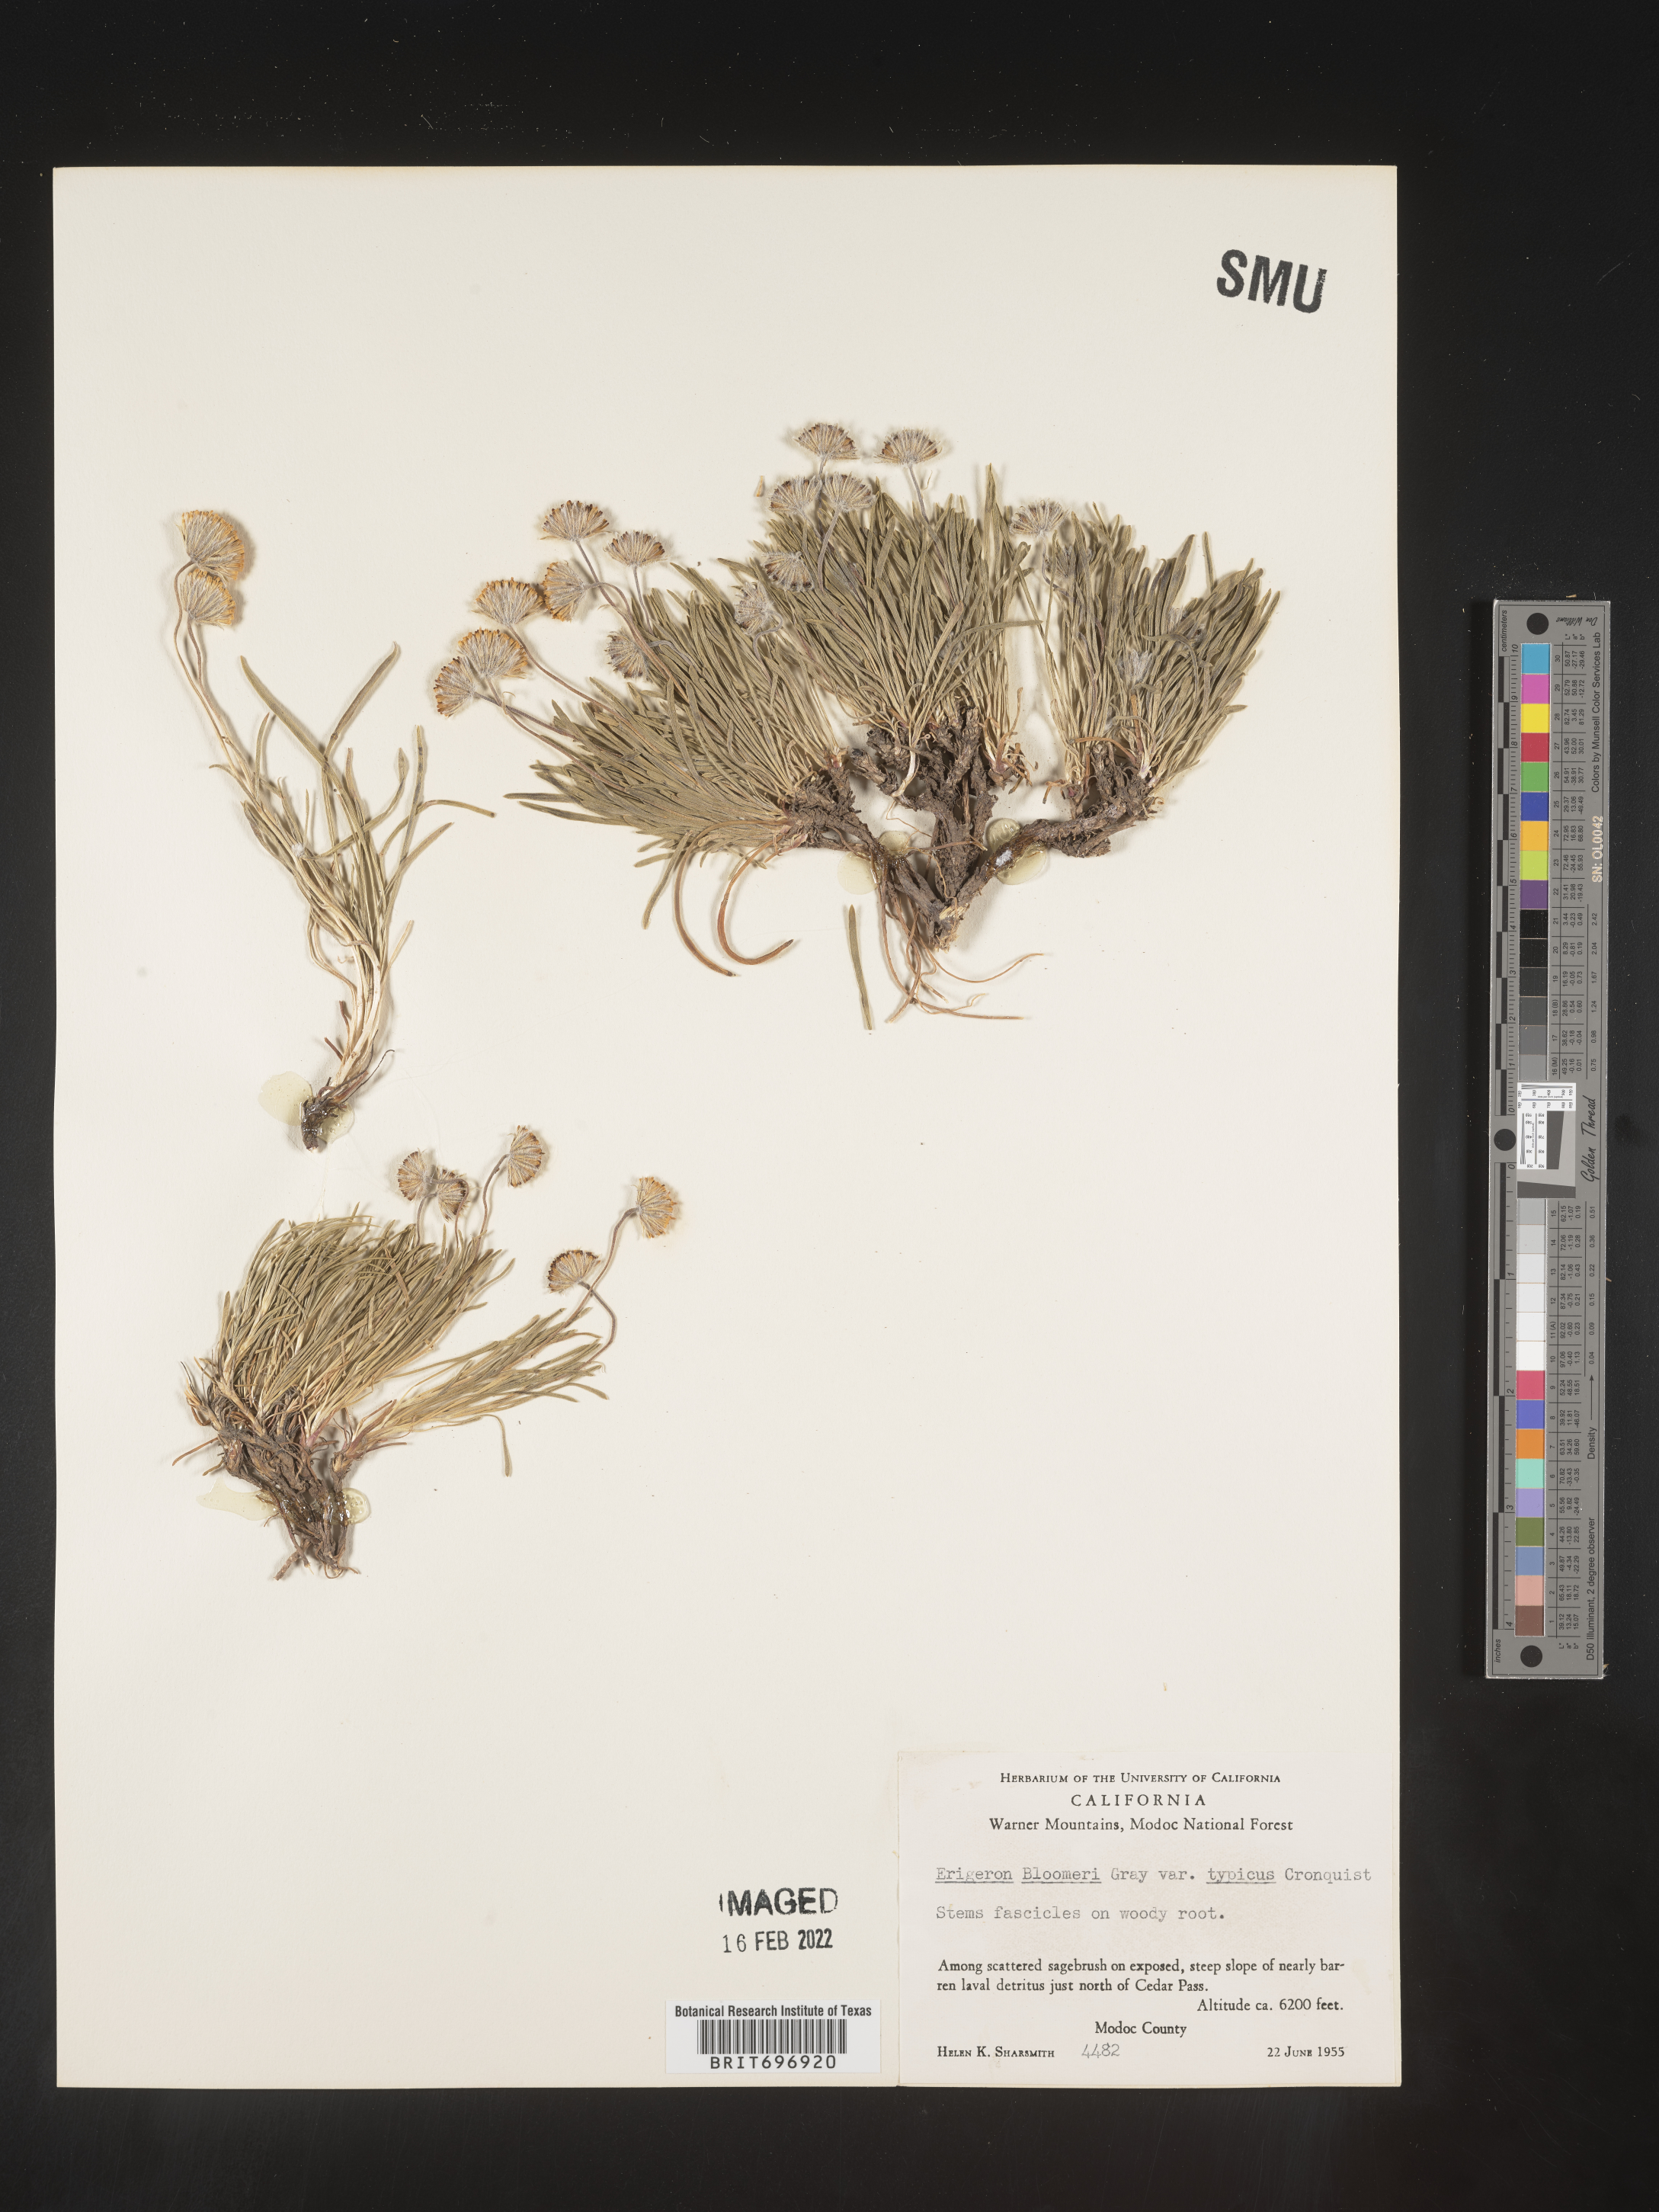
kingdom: Plantae
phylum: Tracheophyta
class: Magnoliopsida
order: Asterales
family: Asteraceae
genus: Erigeron
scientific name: Erigeron bloomeri
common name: Bloomer's fleabane
